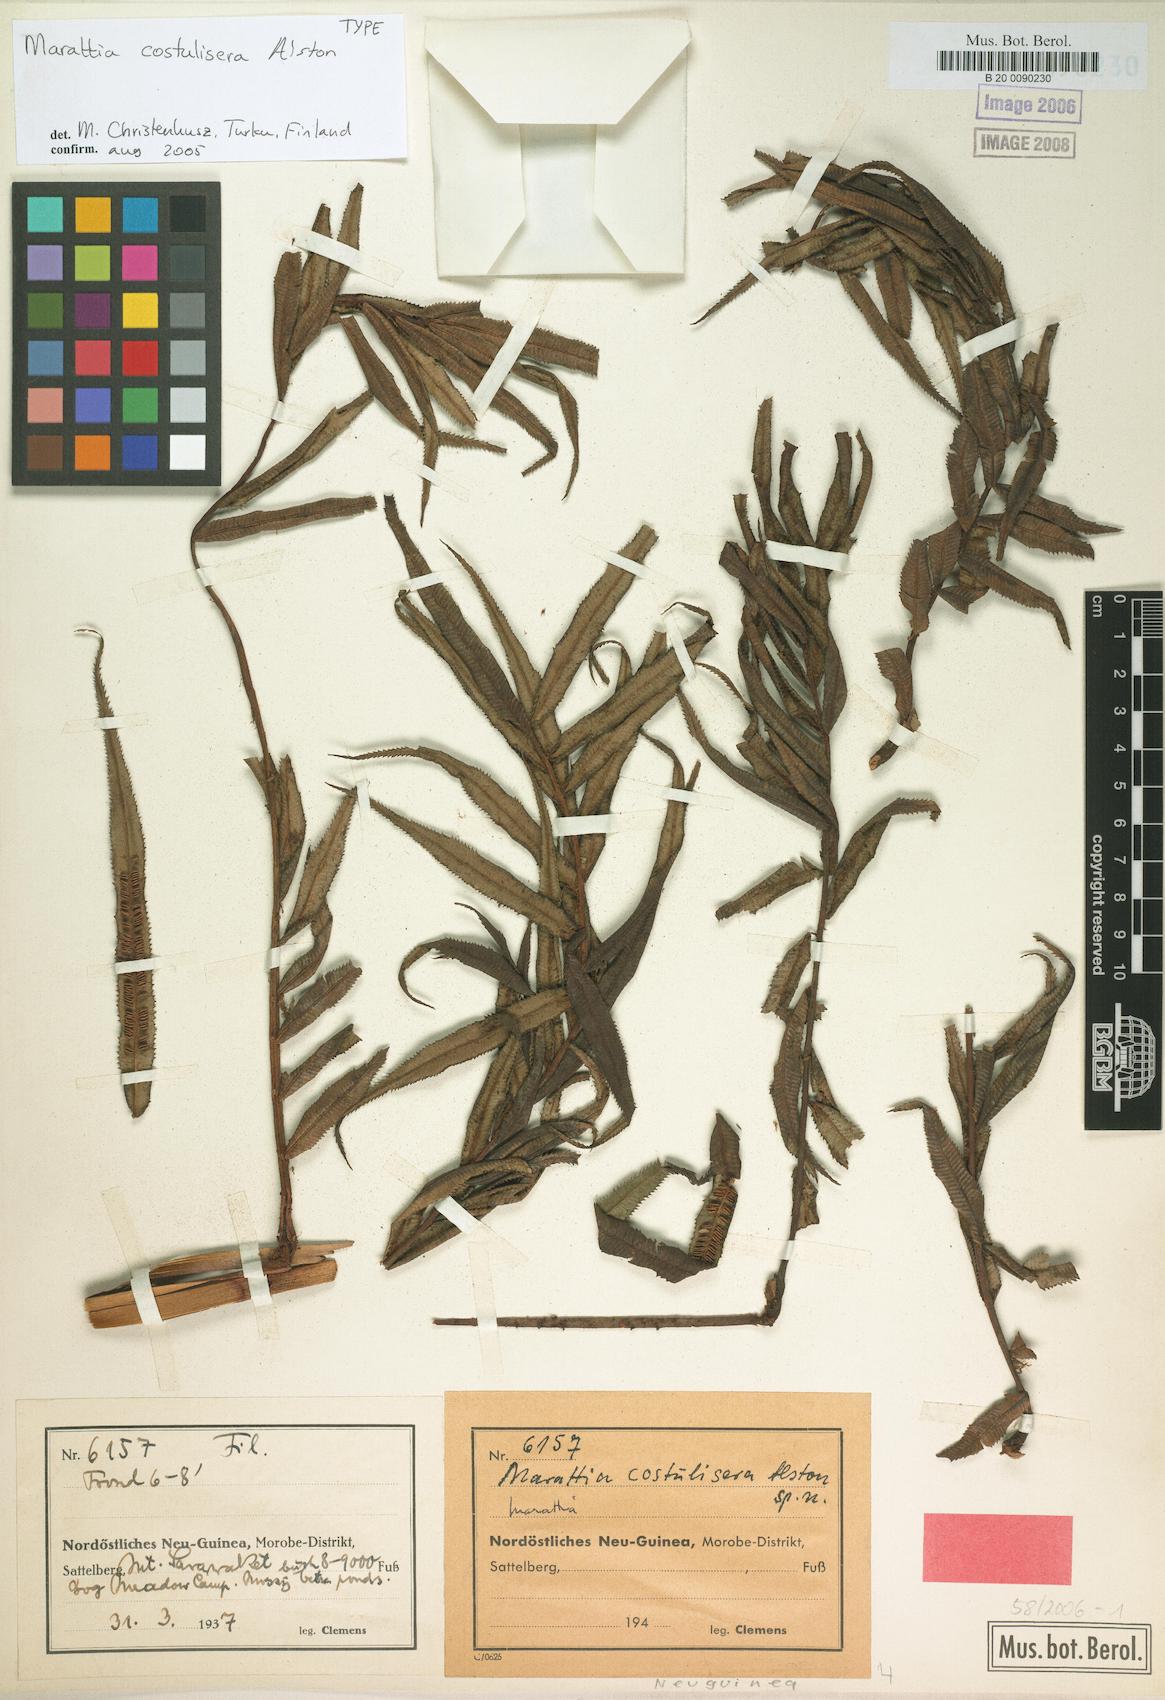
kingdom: Plantae
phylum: Tracheophyta
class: Polypodiopsida
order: Marattiales
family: Marattiaceae
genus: Ptisana
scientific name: Ptisana costulisora
